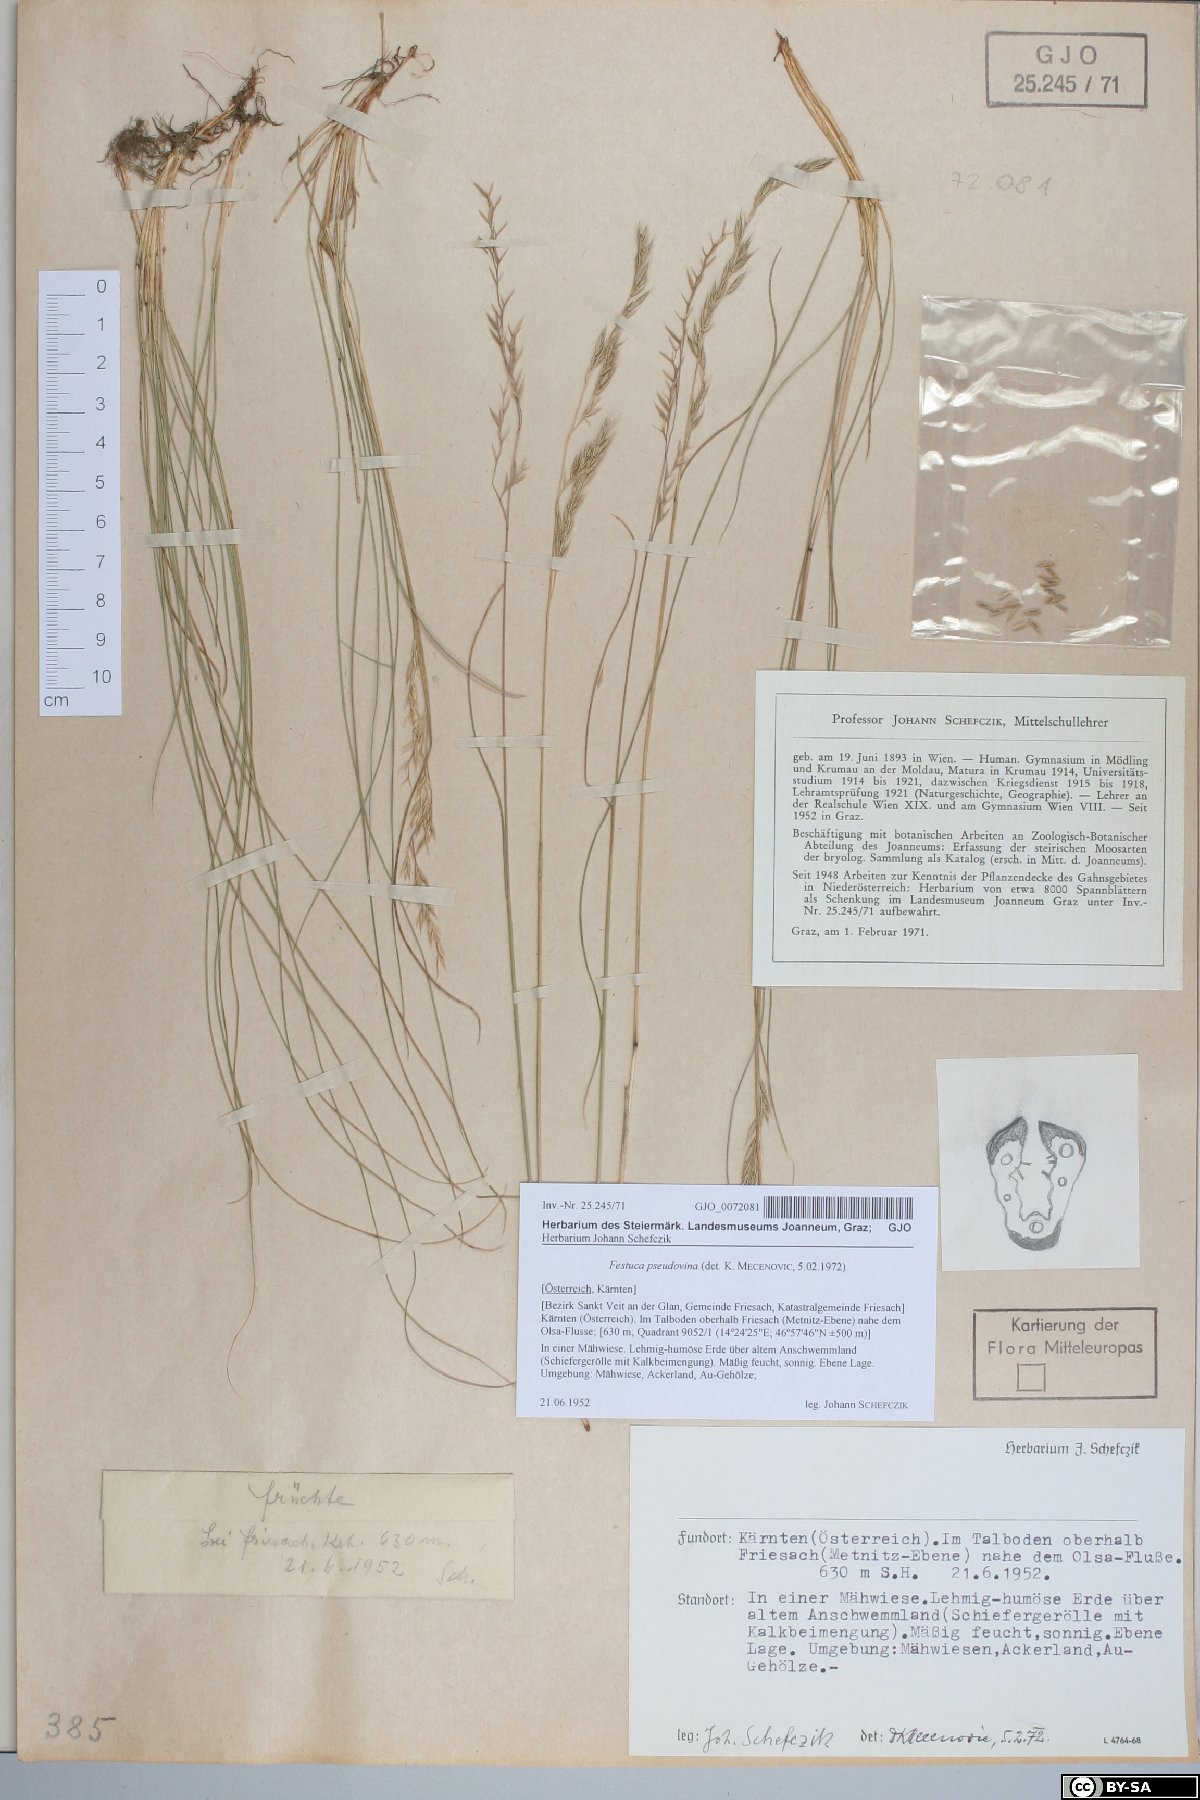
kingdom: Plantae
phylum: Tracheophyta
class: Liliopsida
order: Poales
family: Poaceae
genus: Festuca
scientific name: Festuca pulchra
